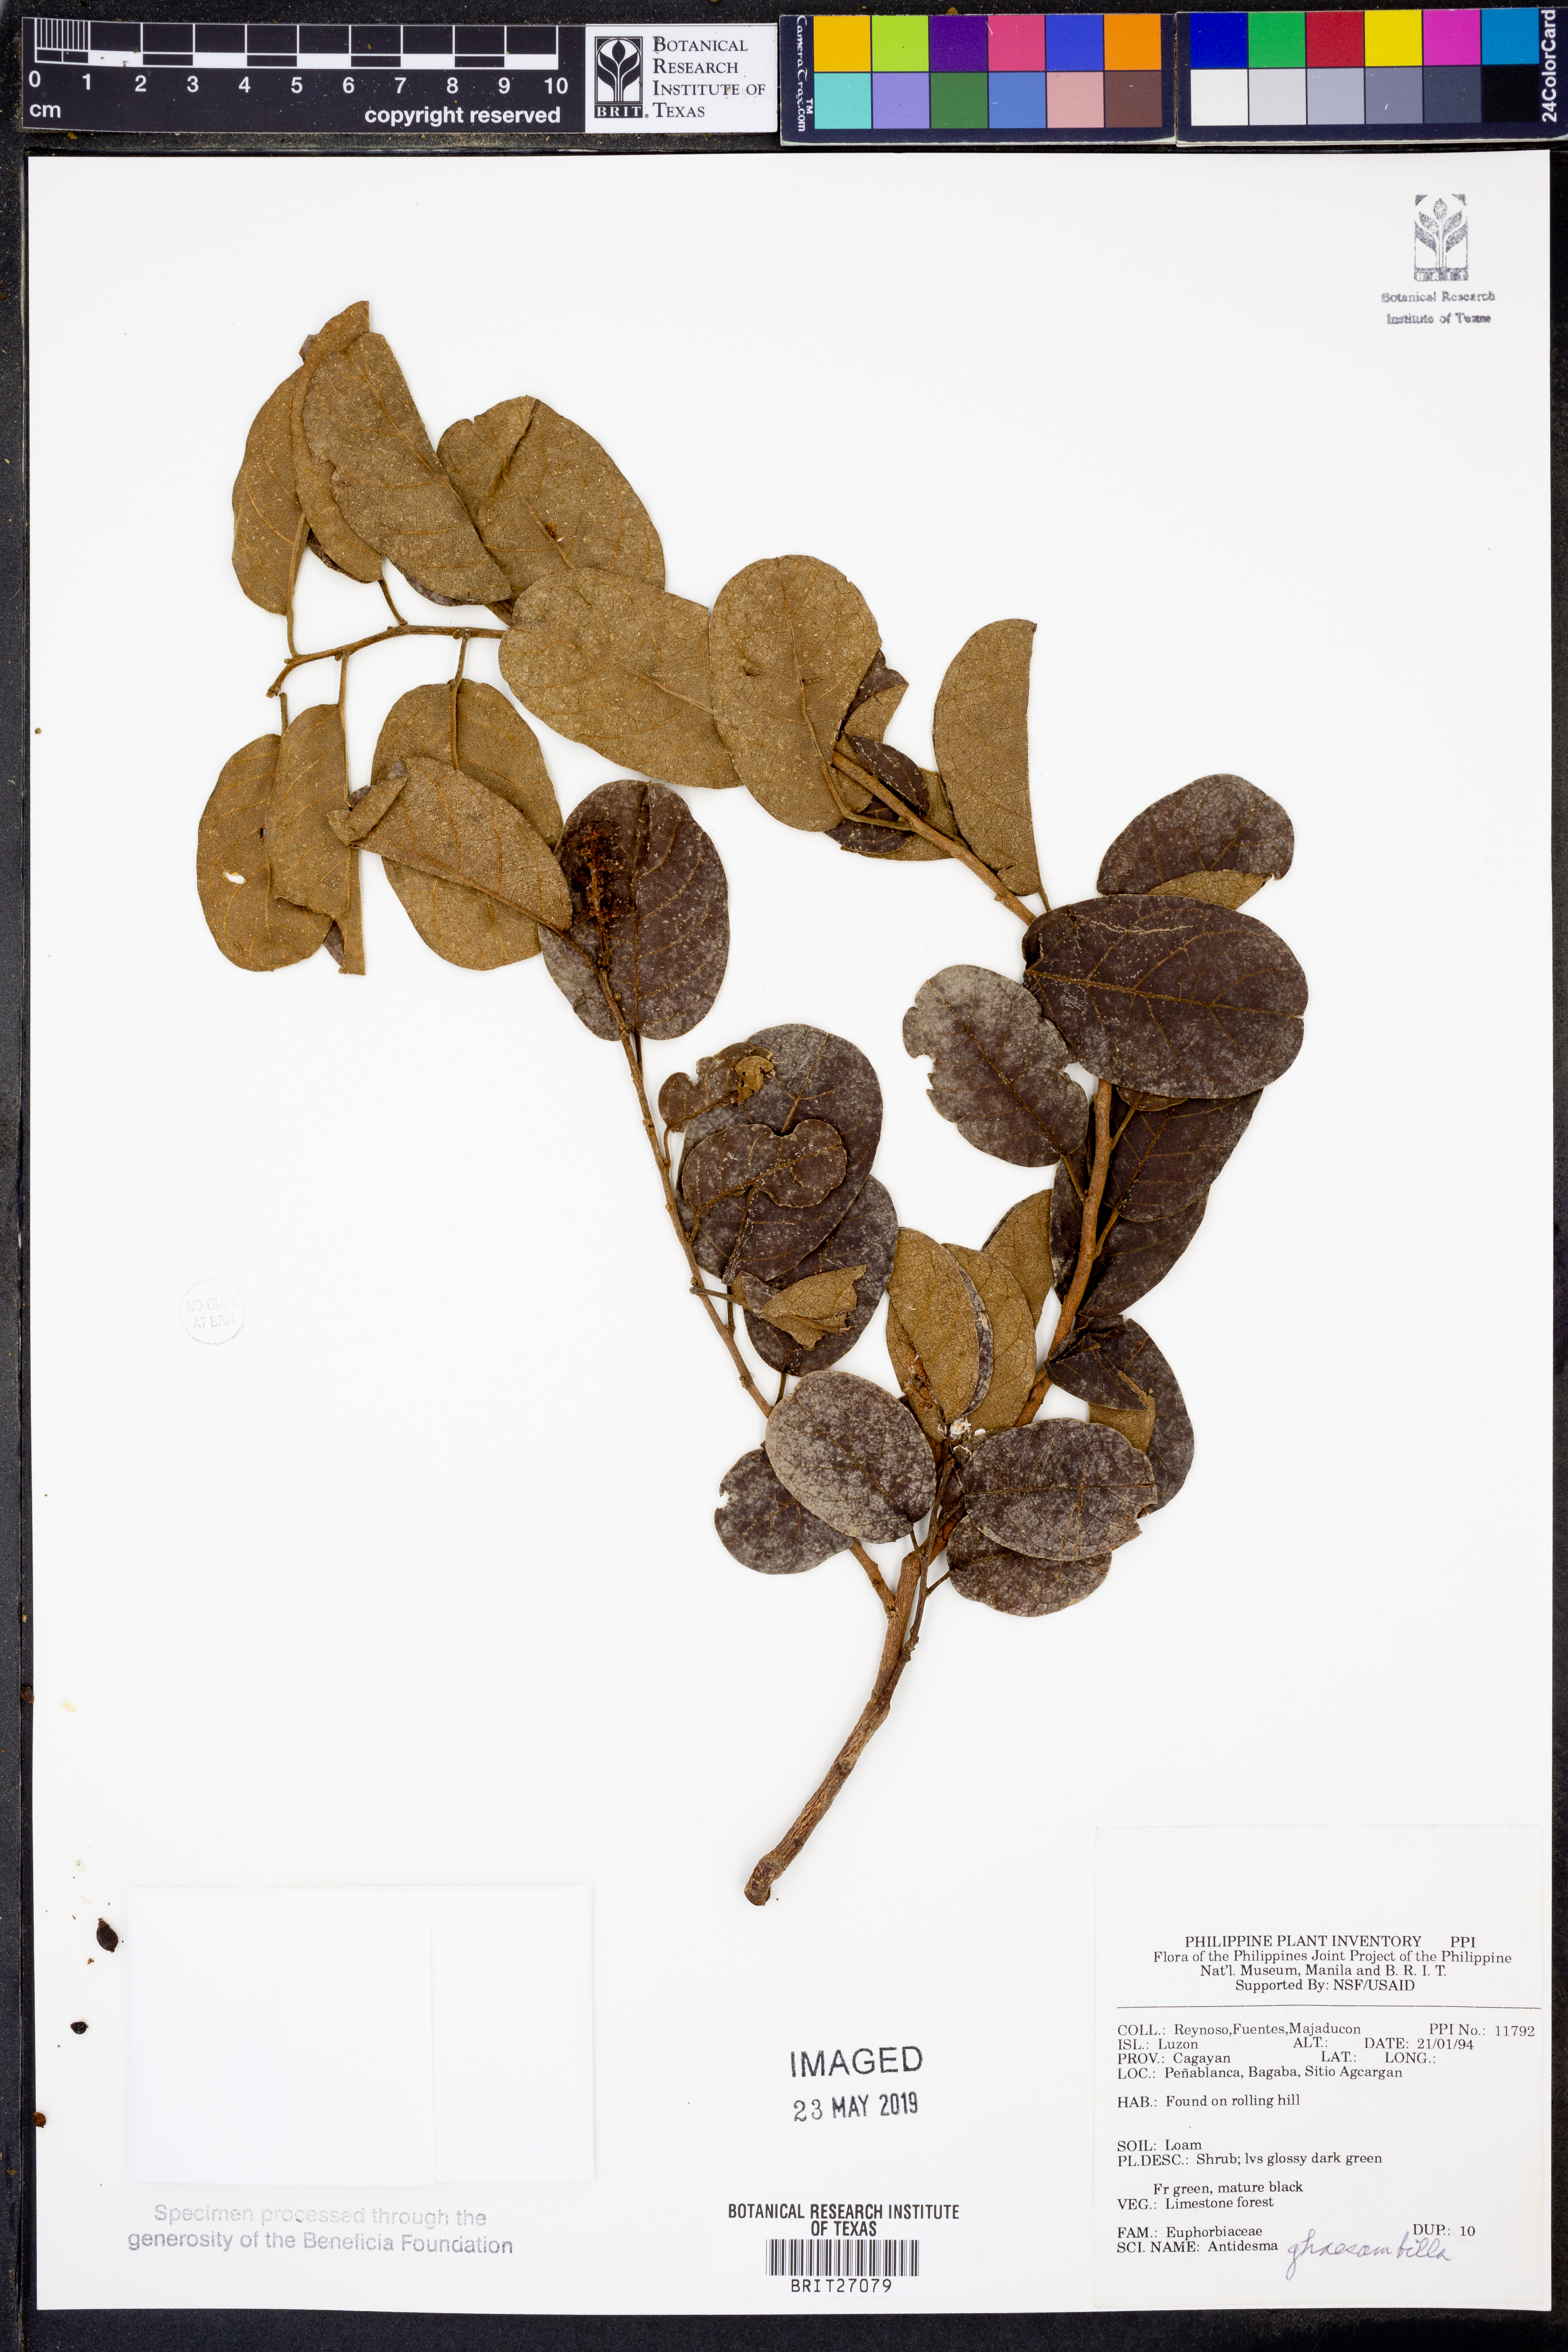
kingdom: Plantae
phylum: Tracheophyta
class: Magnoliopsida
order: Malpighiales
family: Phyllanthaceae
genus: Antidesma
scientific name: Antidesma ghaesembilla
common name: Black currant-tree
